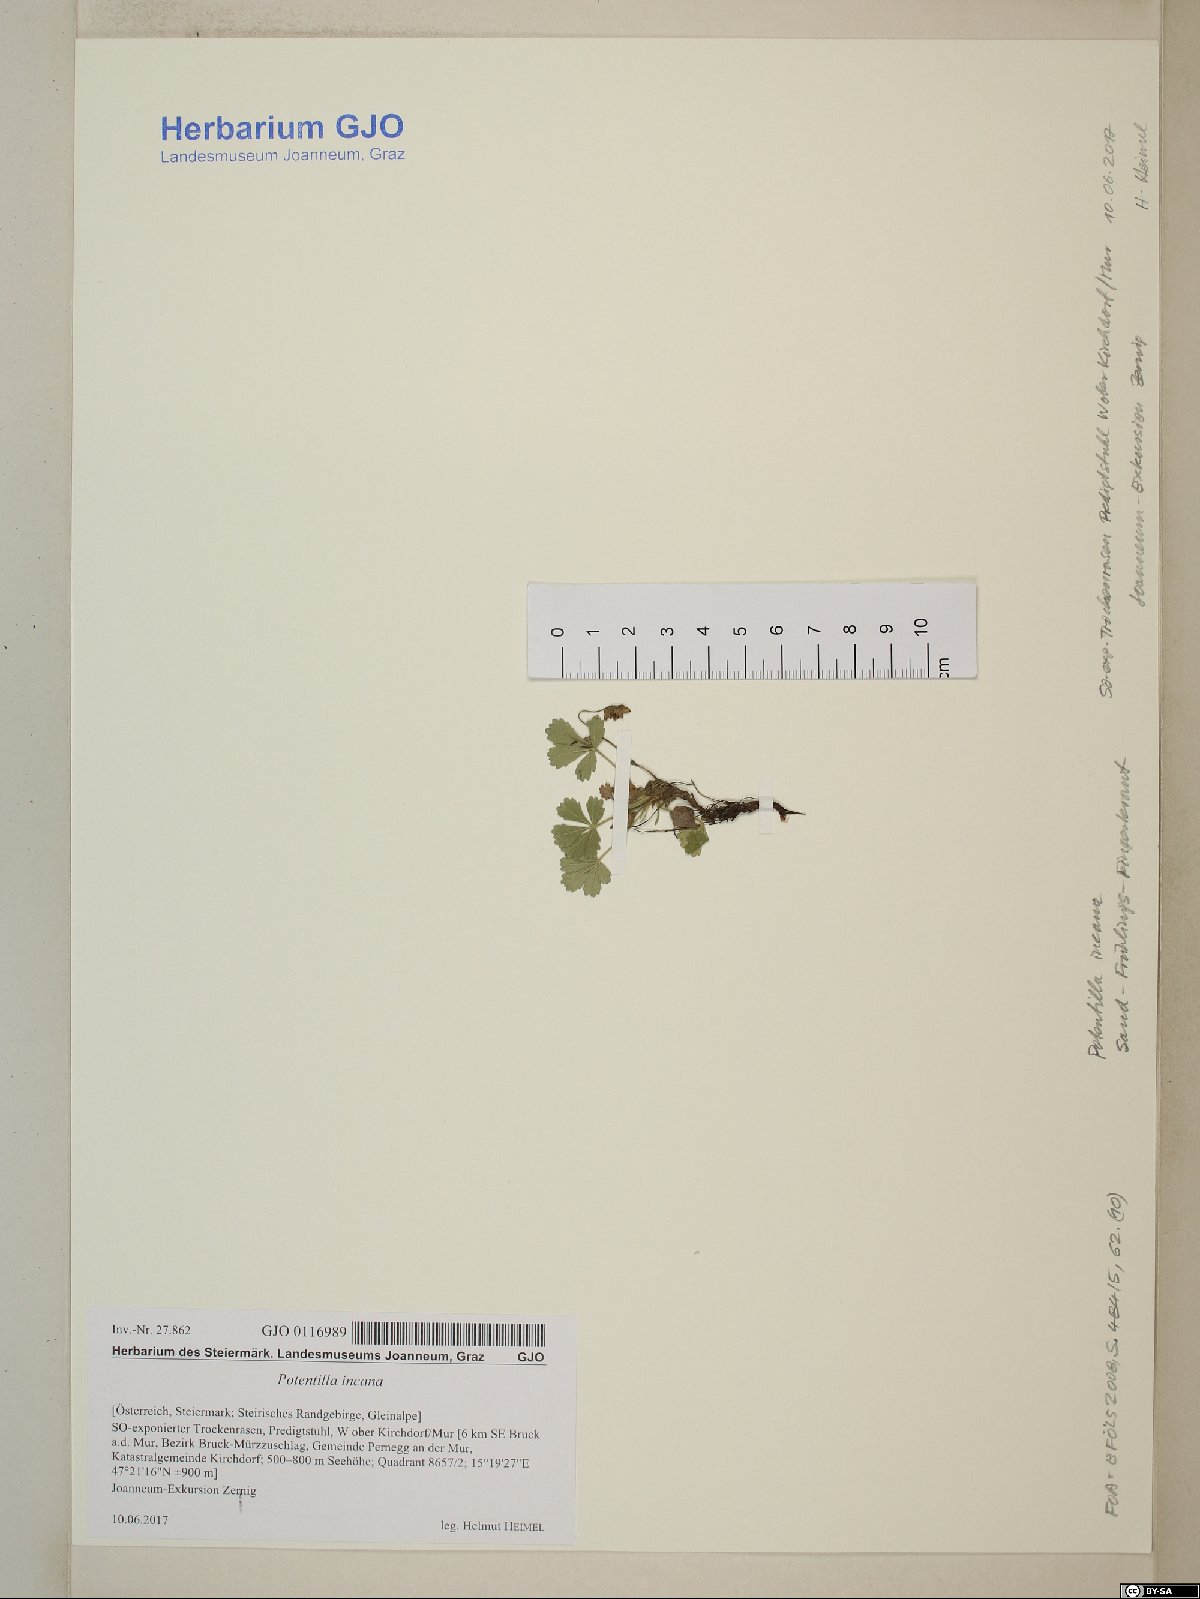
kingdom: Plantae
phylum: Tracheophyta
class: Magnoliopsida
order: Rosales
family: Rosaceae
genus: Potentilla
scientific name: Potentilla cinerea
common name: Ashy cinquefoil
